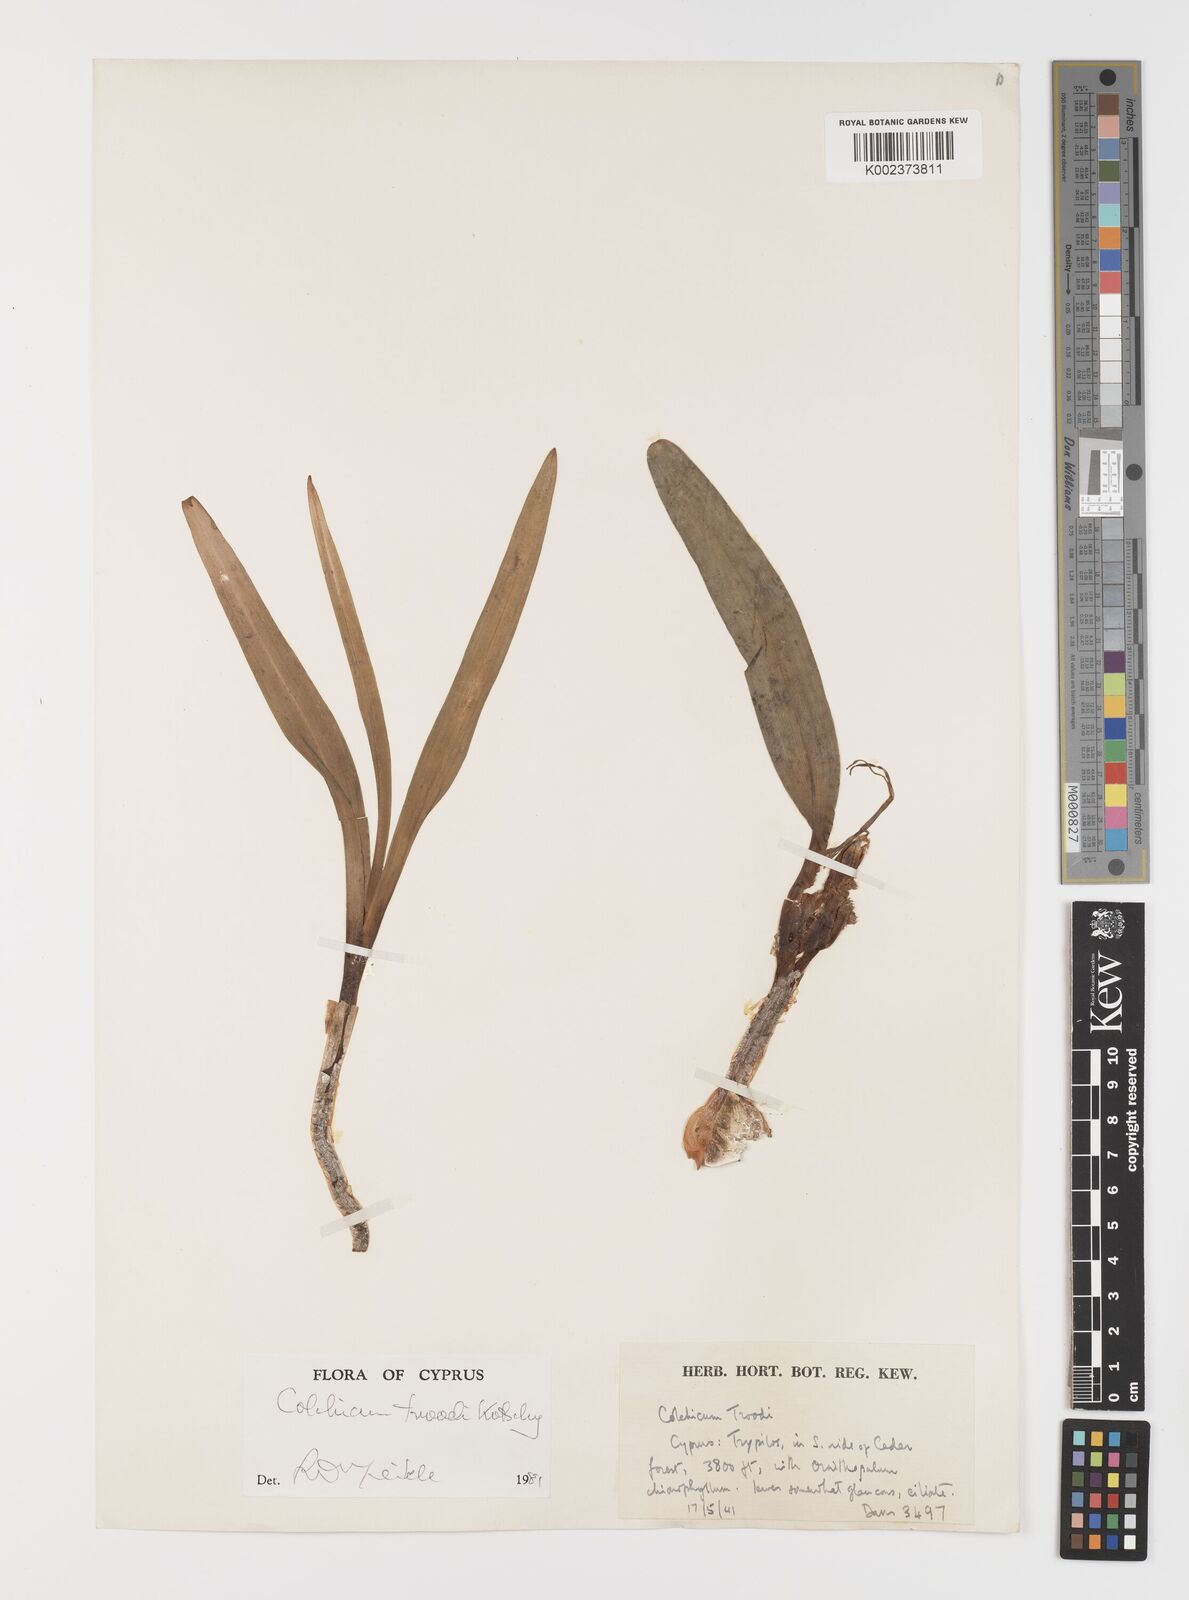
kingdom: Plantae
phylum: Tracheophyta
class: Liliopsida
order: Liliales
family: Colchicaceae
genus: Colchicum
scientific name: Colchicum troodi
